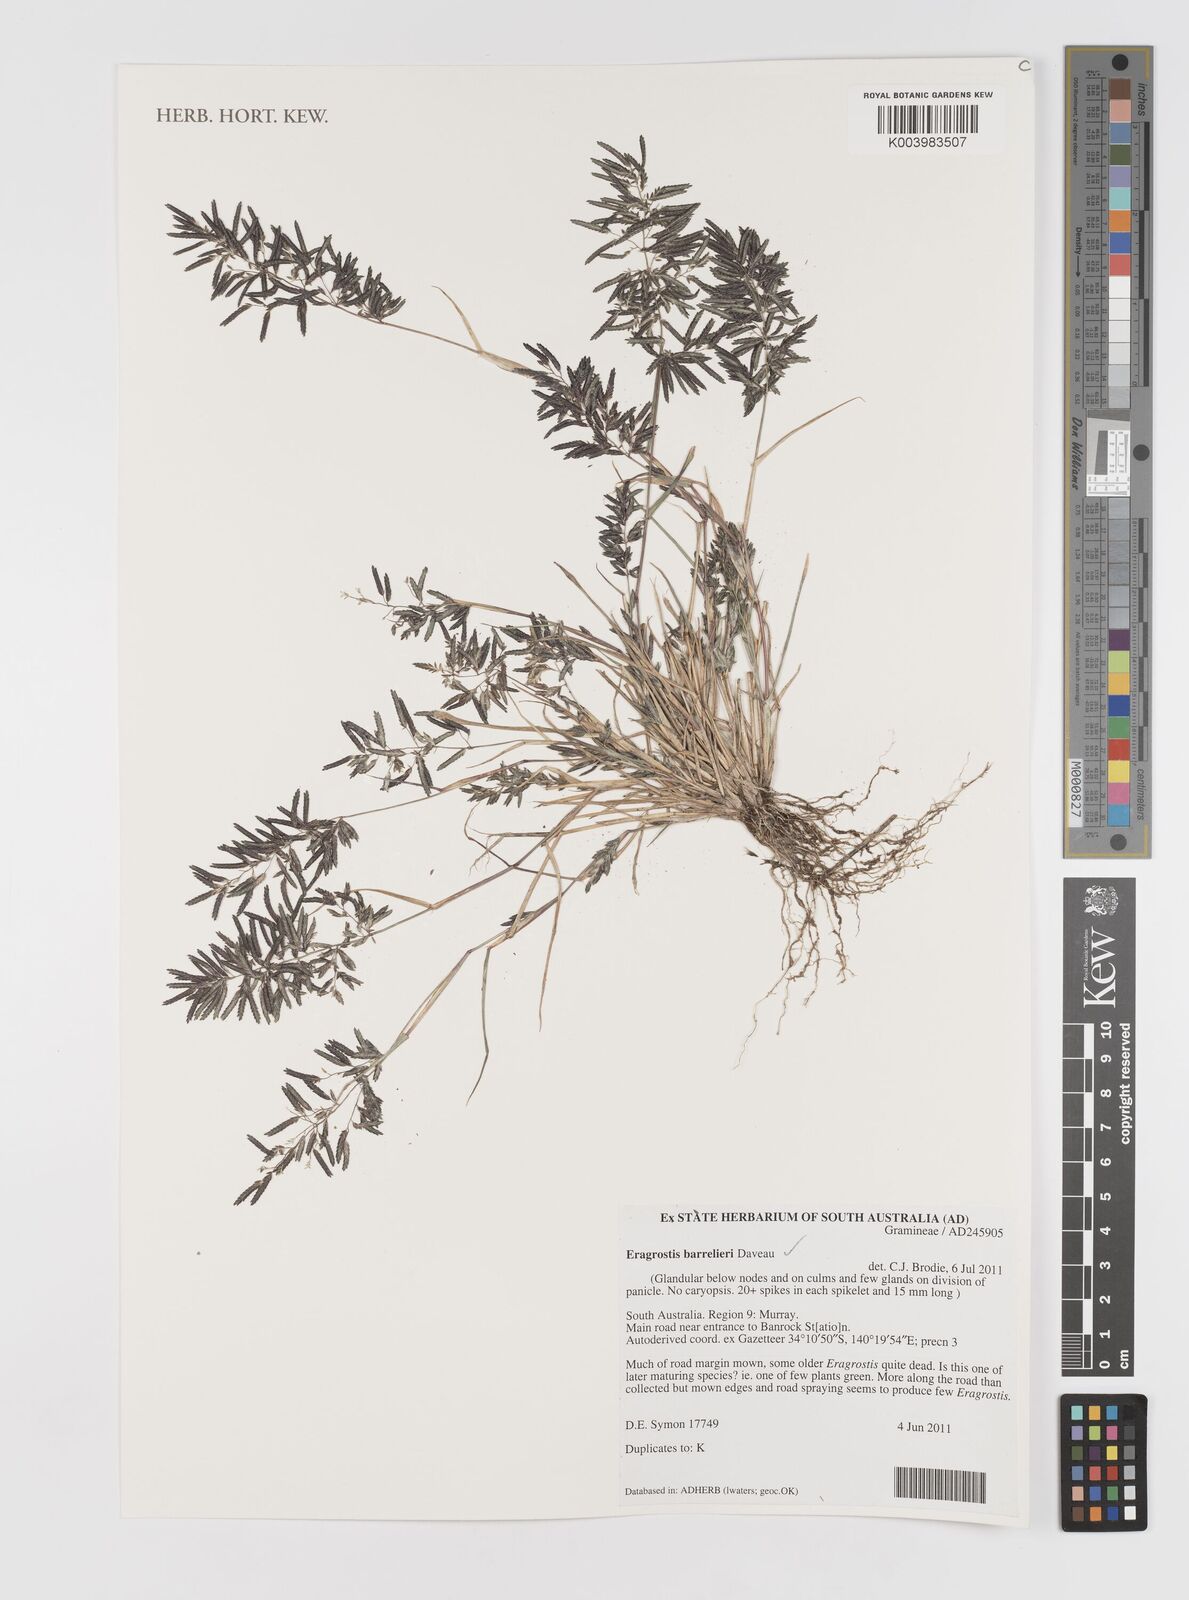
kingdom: Plantae
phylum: Tracheophyta
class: Liliopsida
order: Poales
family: Poaceae
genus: Eragrostis
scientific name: Eragrostis barrelieri
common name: Mediterranean lovegrass
